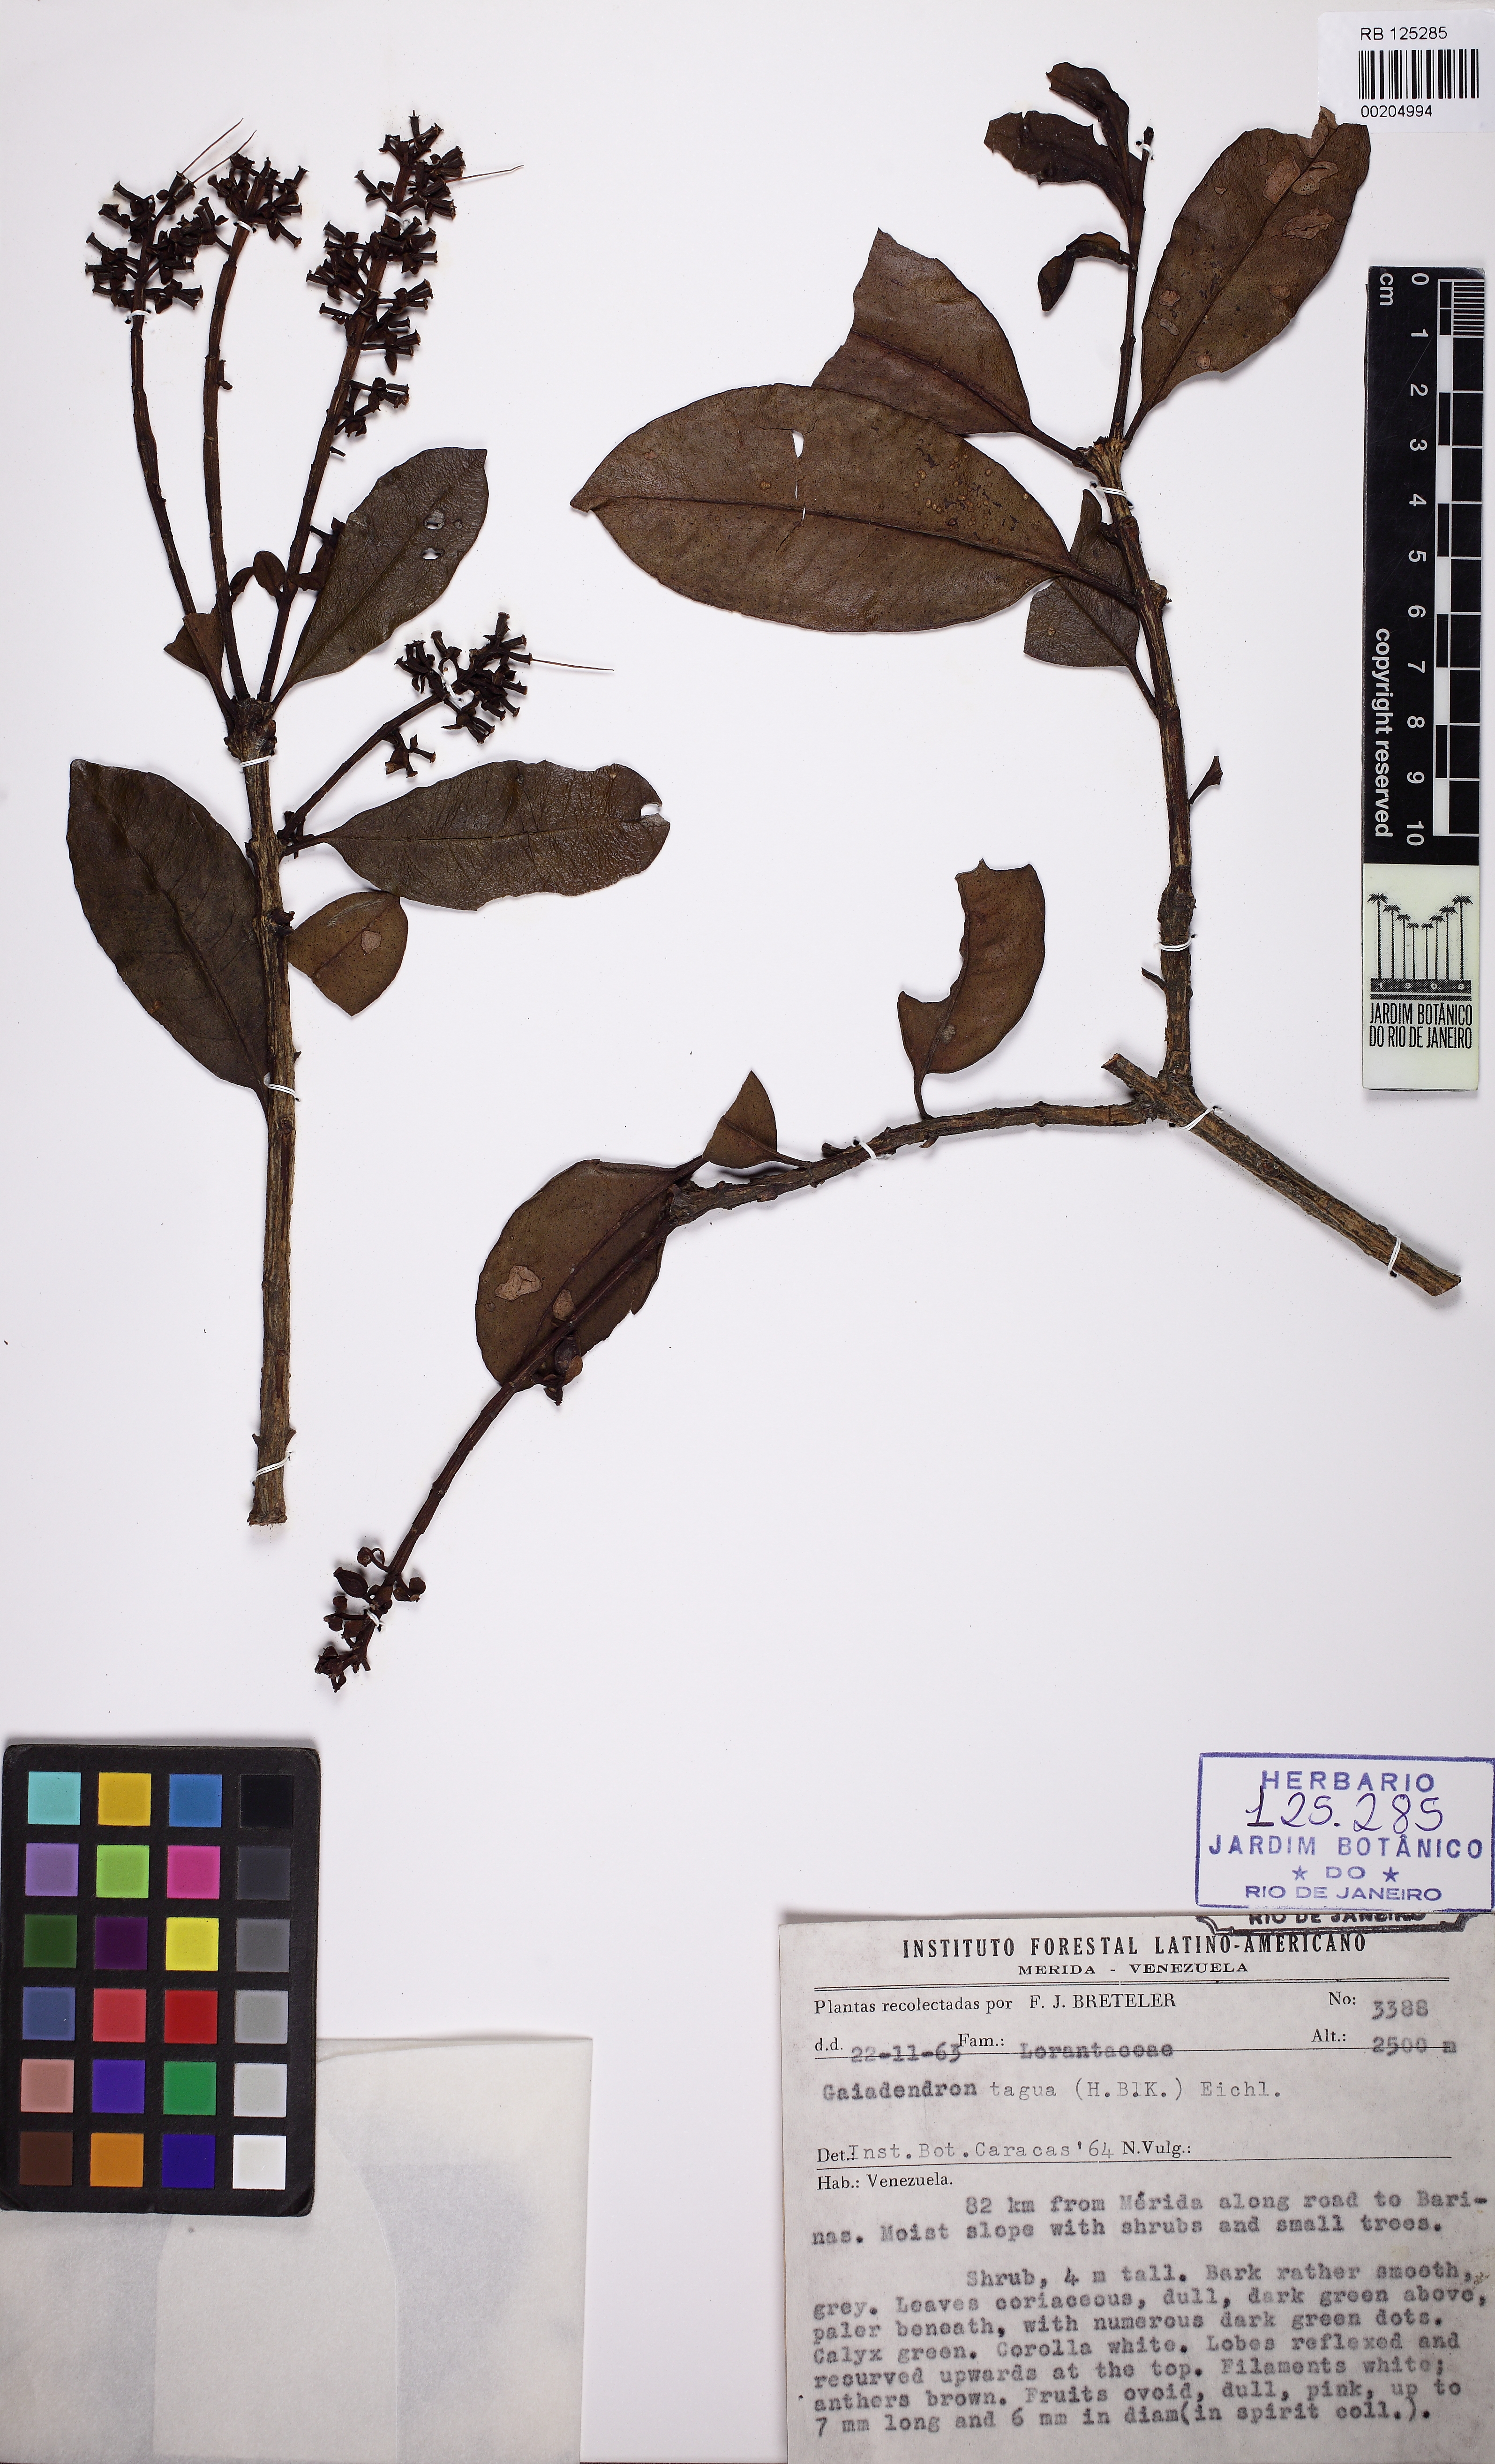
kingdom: Plantae
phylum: Tracheophyta
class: Magnoliopsida
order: Santalales
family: Loranthaceae
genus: Gaiadendron
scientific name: Gaiadendron punctatum
